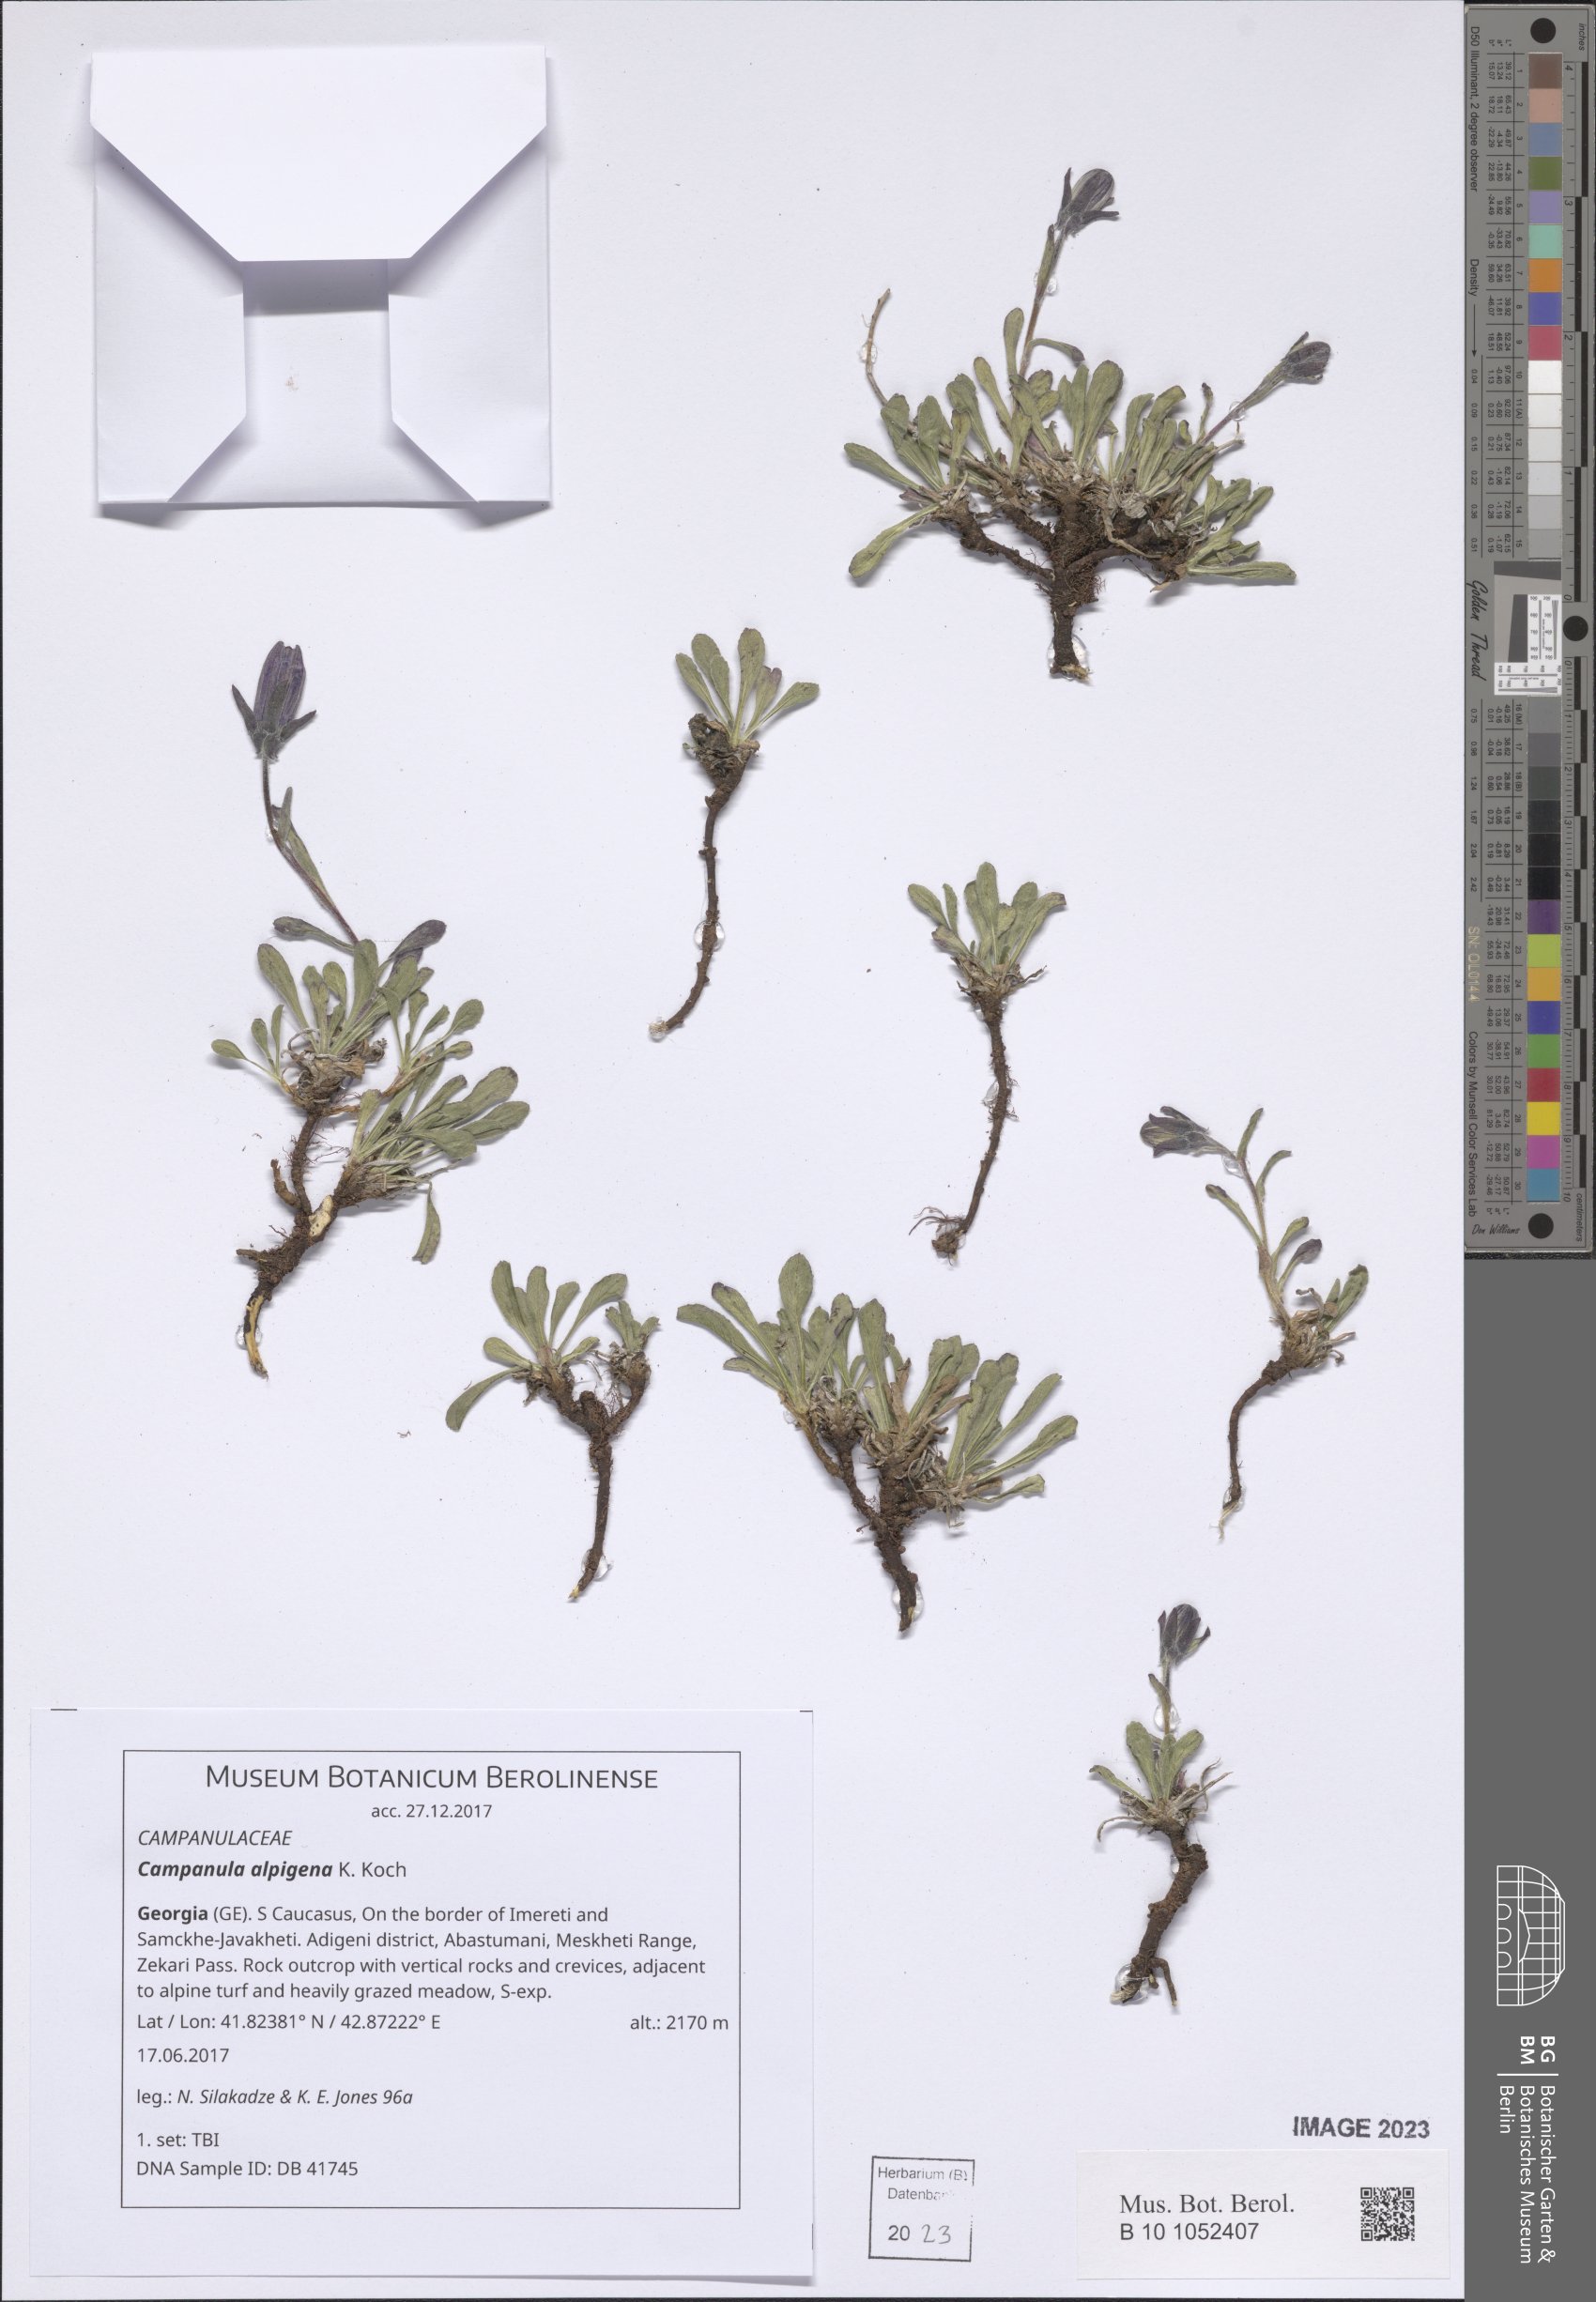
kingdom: Plantae
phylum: Tracheophyta
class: Magnoliopsida
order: Asterales
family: Campanulaceae
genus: Campanula
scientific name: Campanula saxifraga
